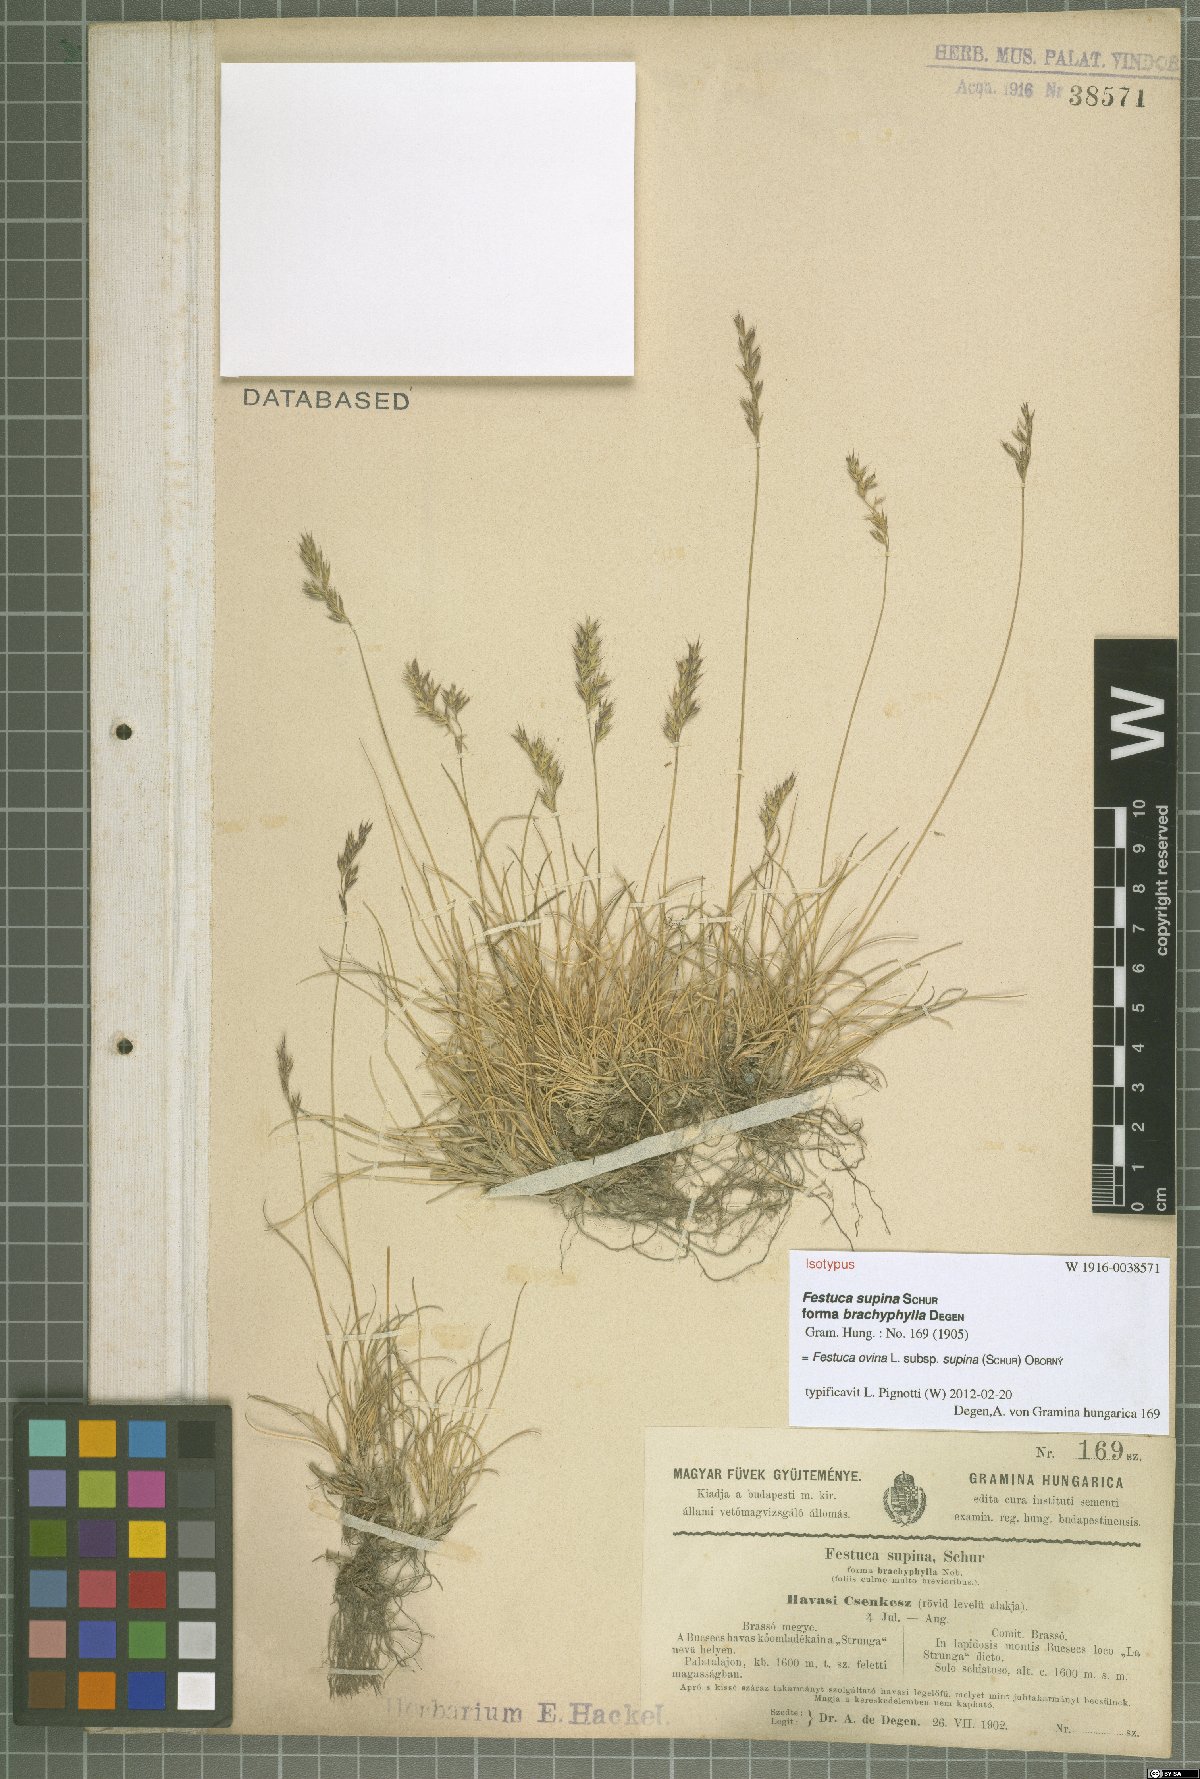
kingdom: Plantae
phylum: Tracheophyta
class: Liliopsida
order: Poales
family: Poaceae
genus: Festuca
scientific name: Festuca airoides
